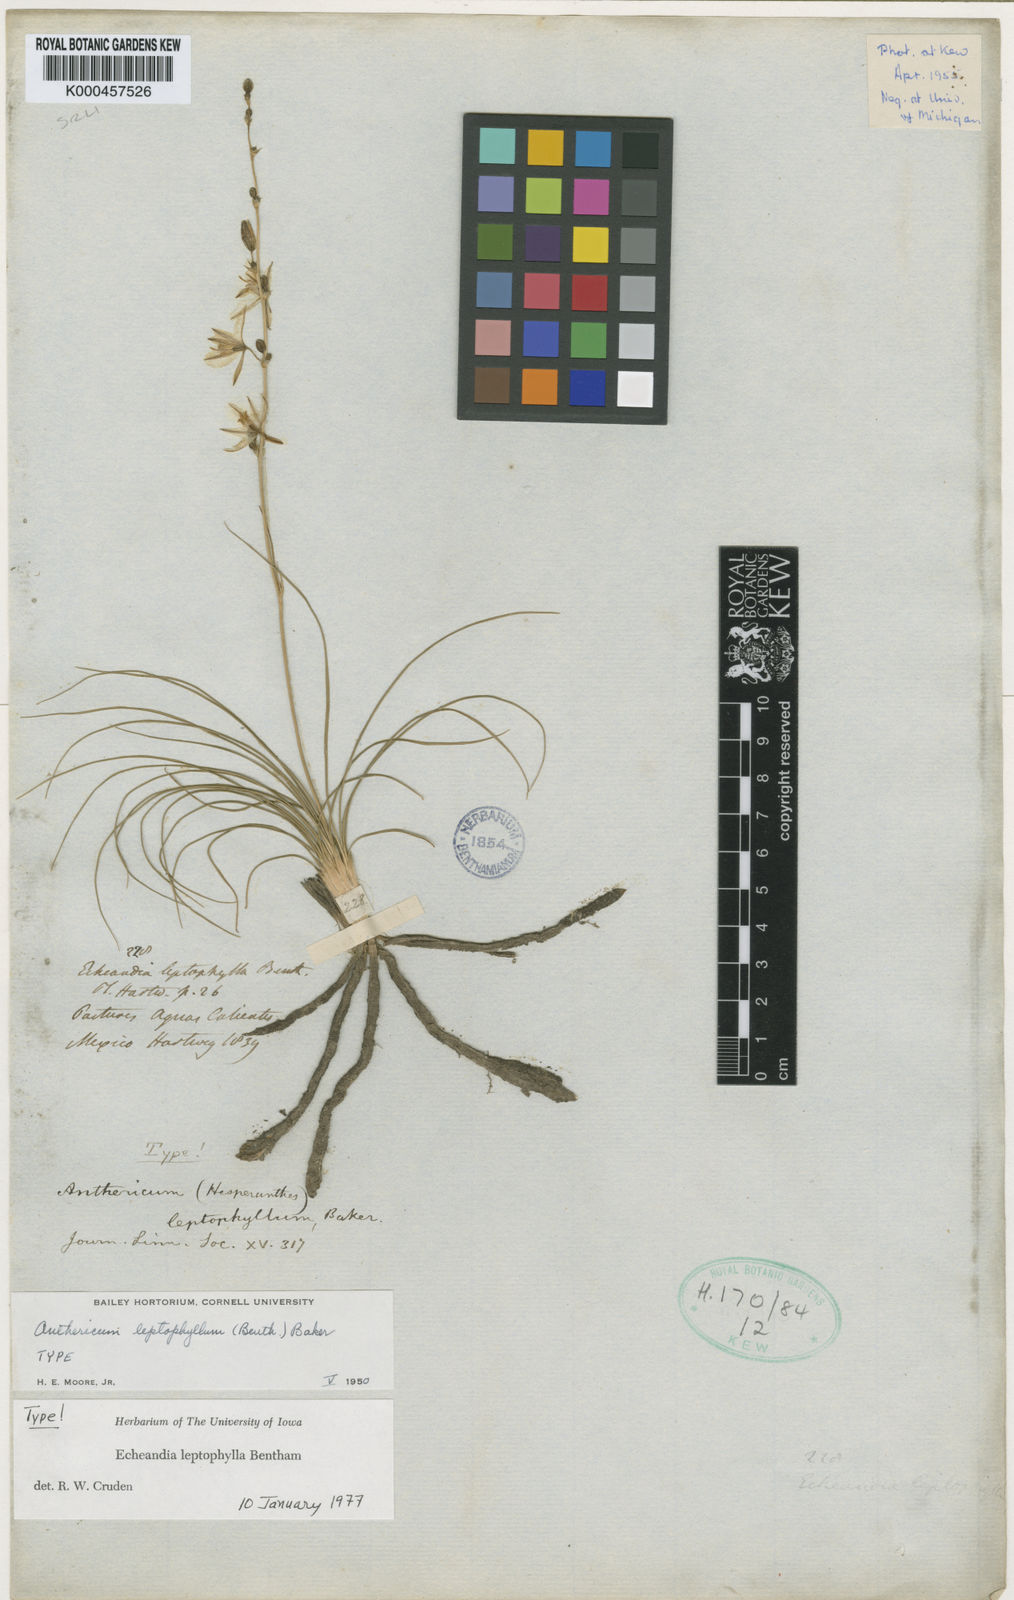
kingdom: Plantae
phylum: Tracheophyta
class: Liliopsida
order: Asparagales
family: Asparagaceae
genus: Echeandia
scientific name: Echeandia flavescens
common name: Amberlily
